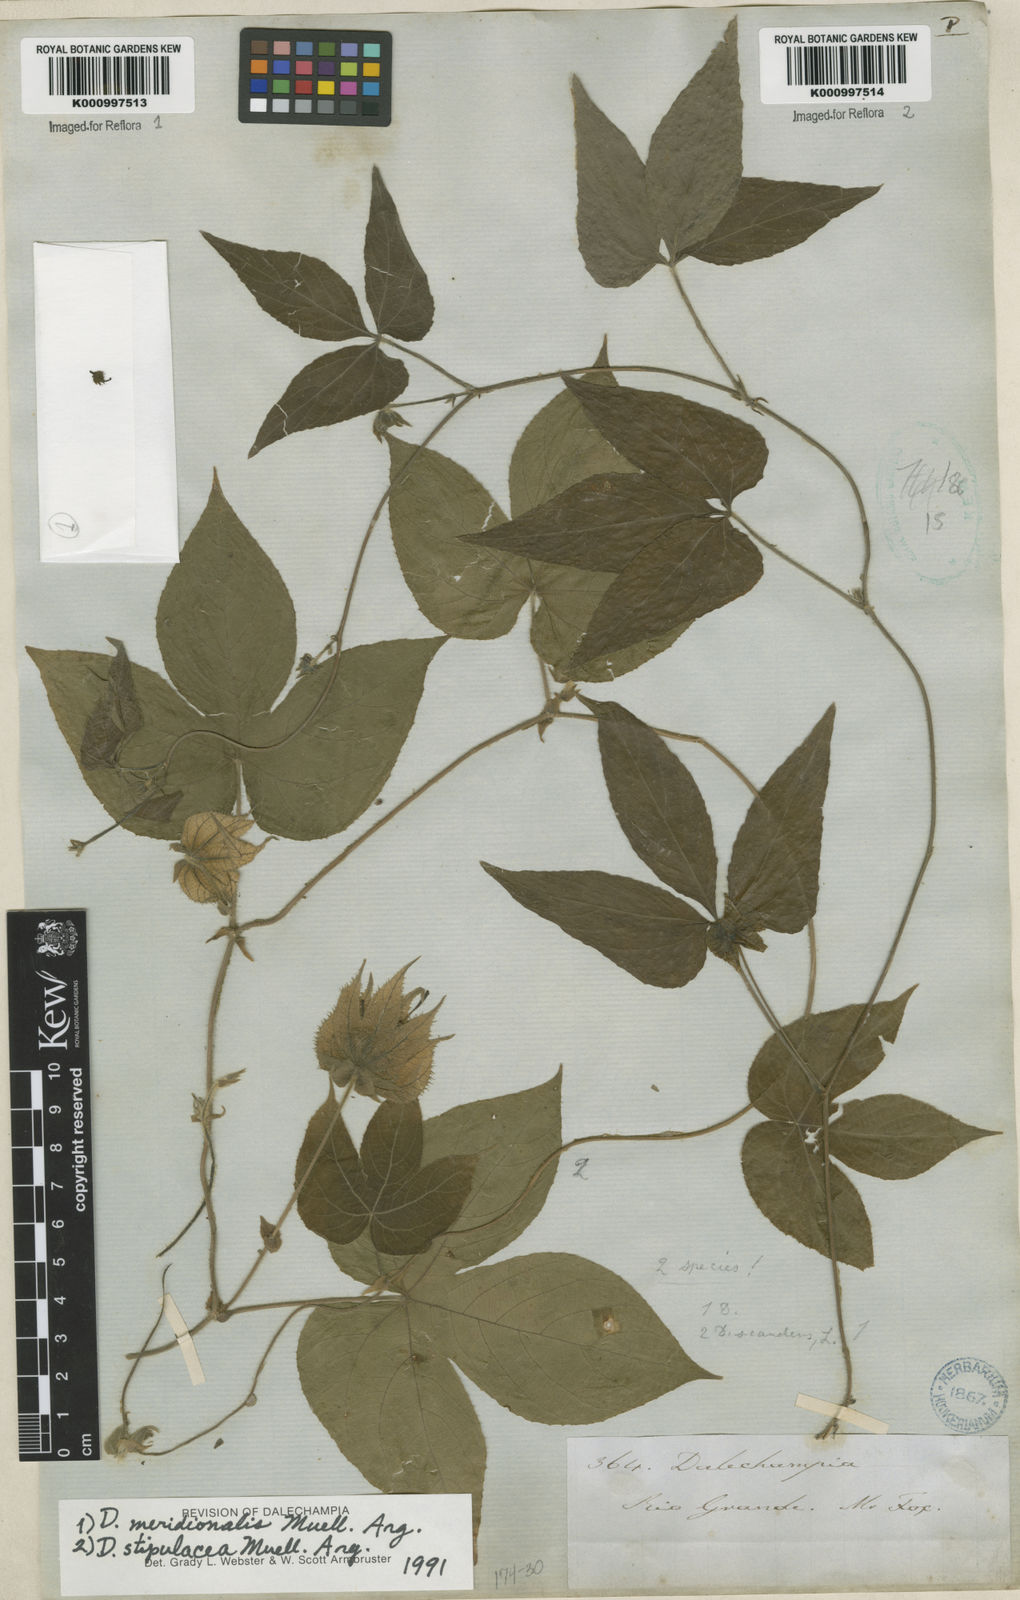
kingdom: Plantae
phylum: Tracheophyta
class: Magnoliopsida
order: Malpighiales
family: Euphorbiaceae
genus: Dalechampia
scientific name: Dalechampia
